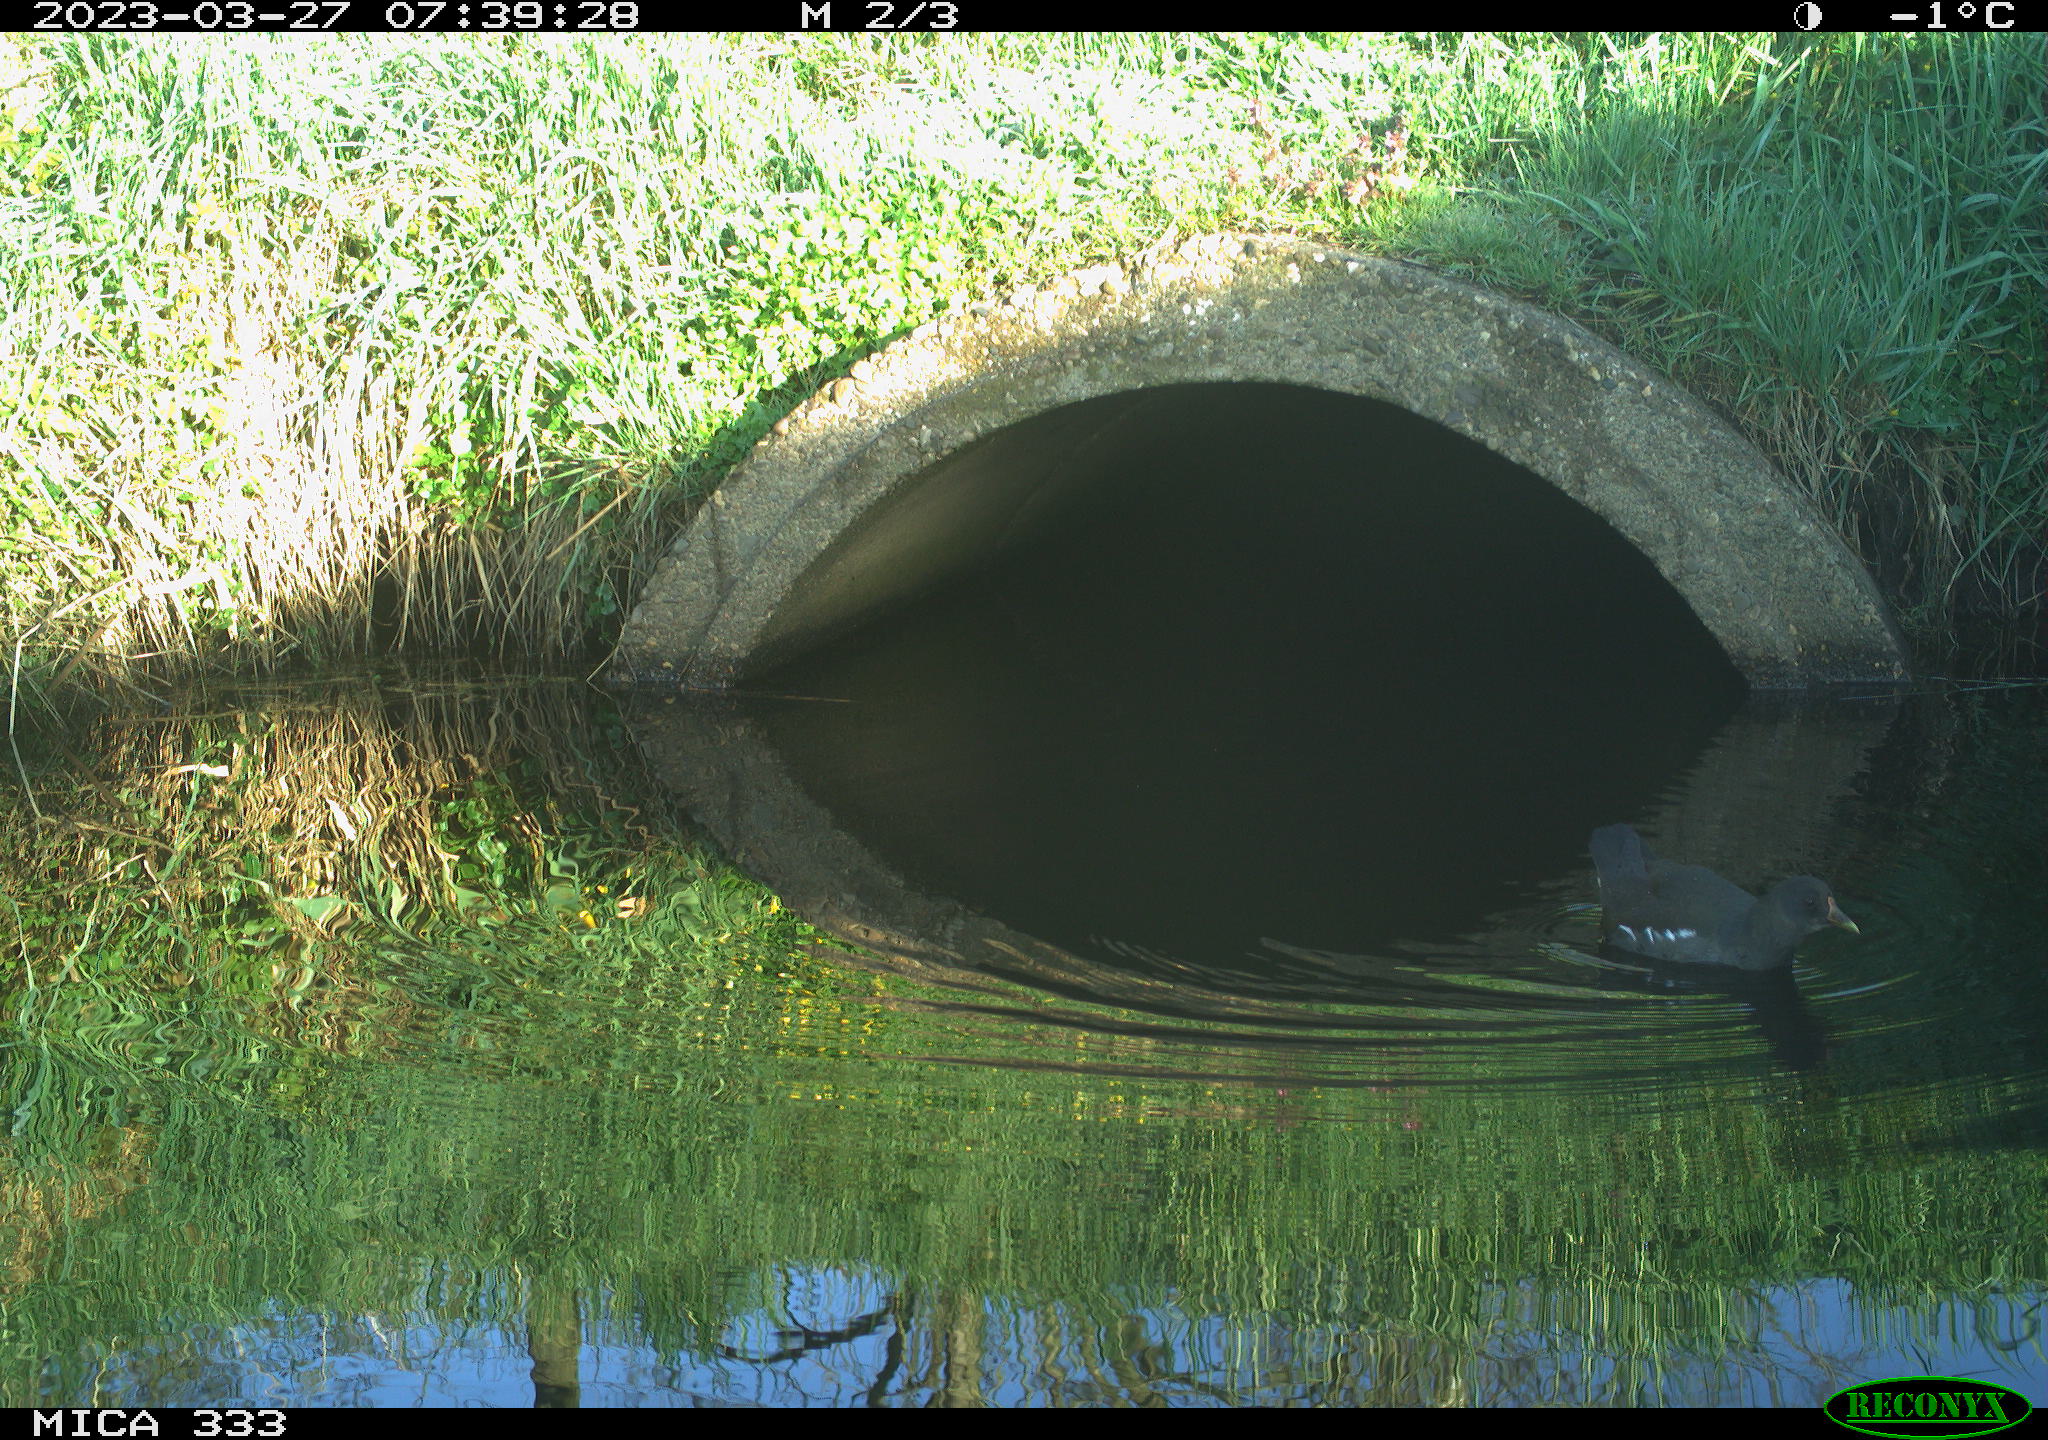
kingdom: Animalia
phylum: Chordata
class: Aves
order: Gruiformes
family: Rallidae
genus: Gallinula
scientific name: Gallinula chloropus
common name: Common moorhen
